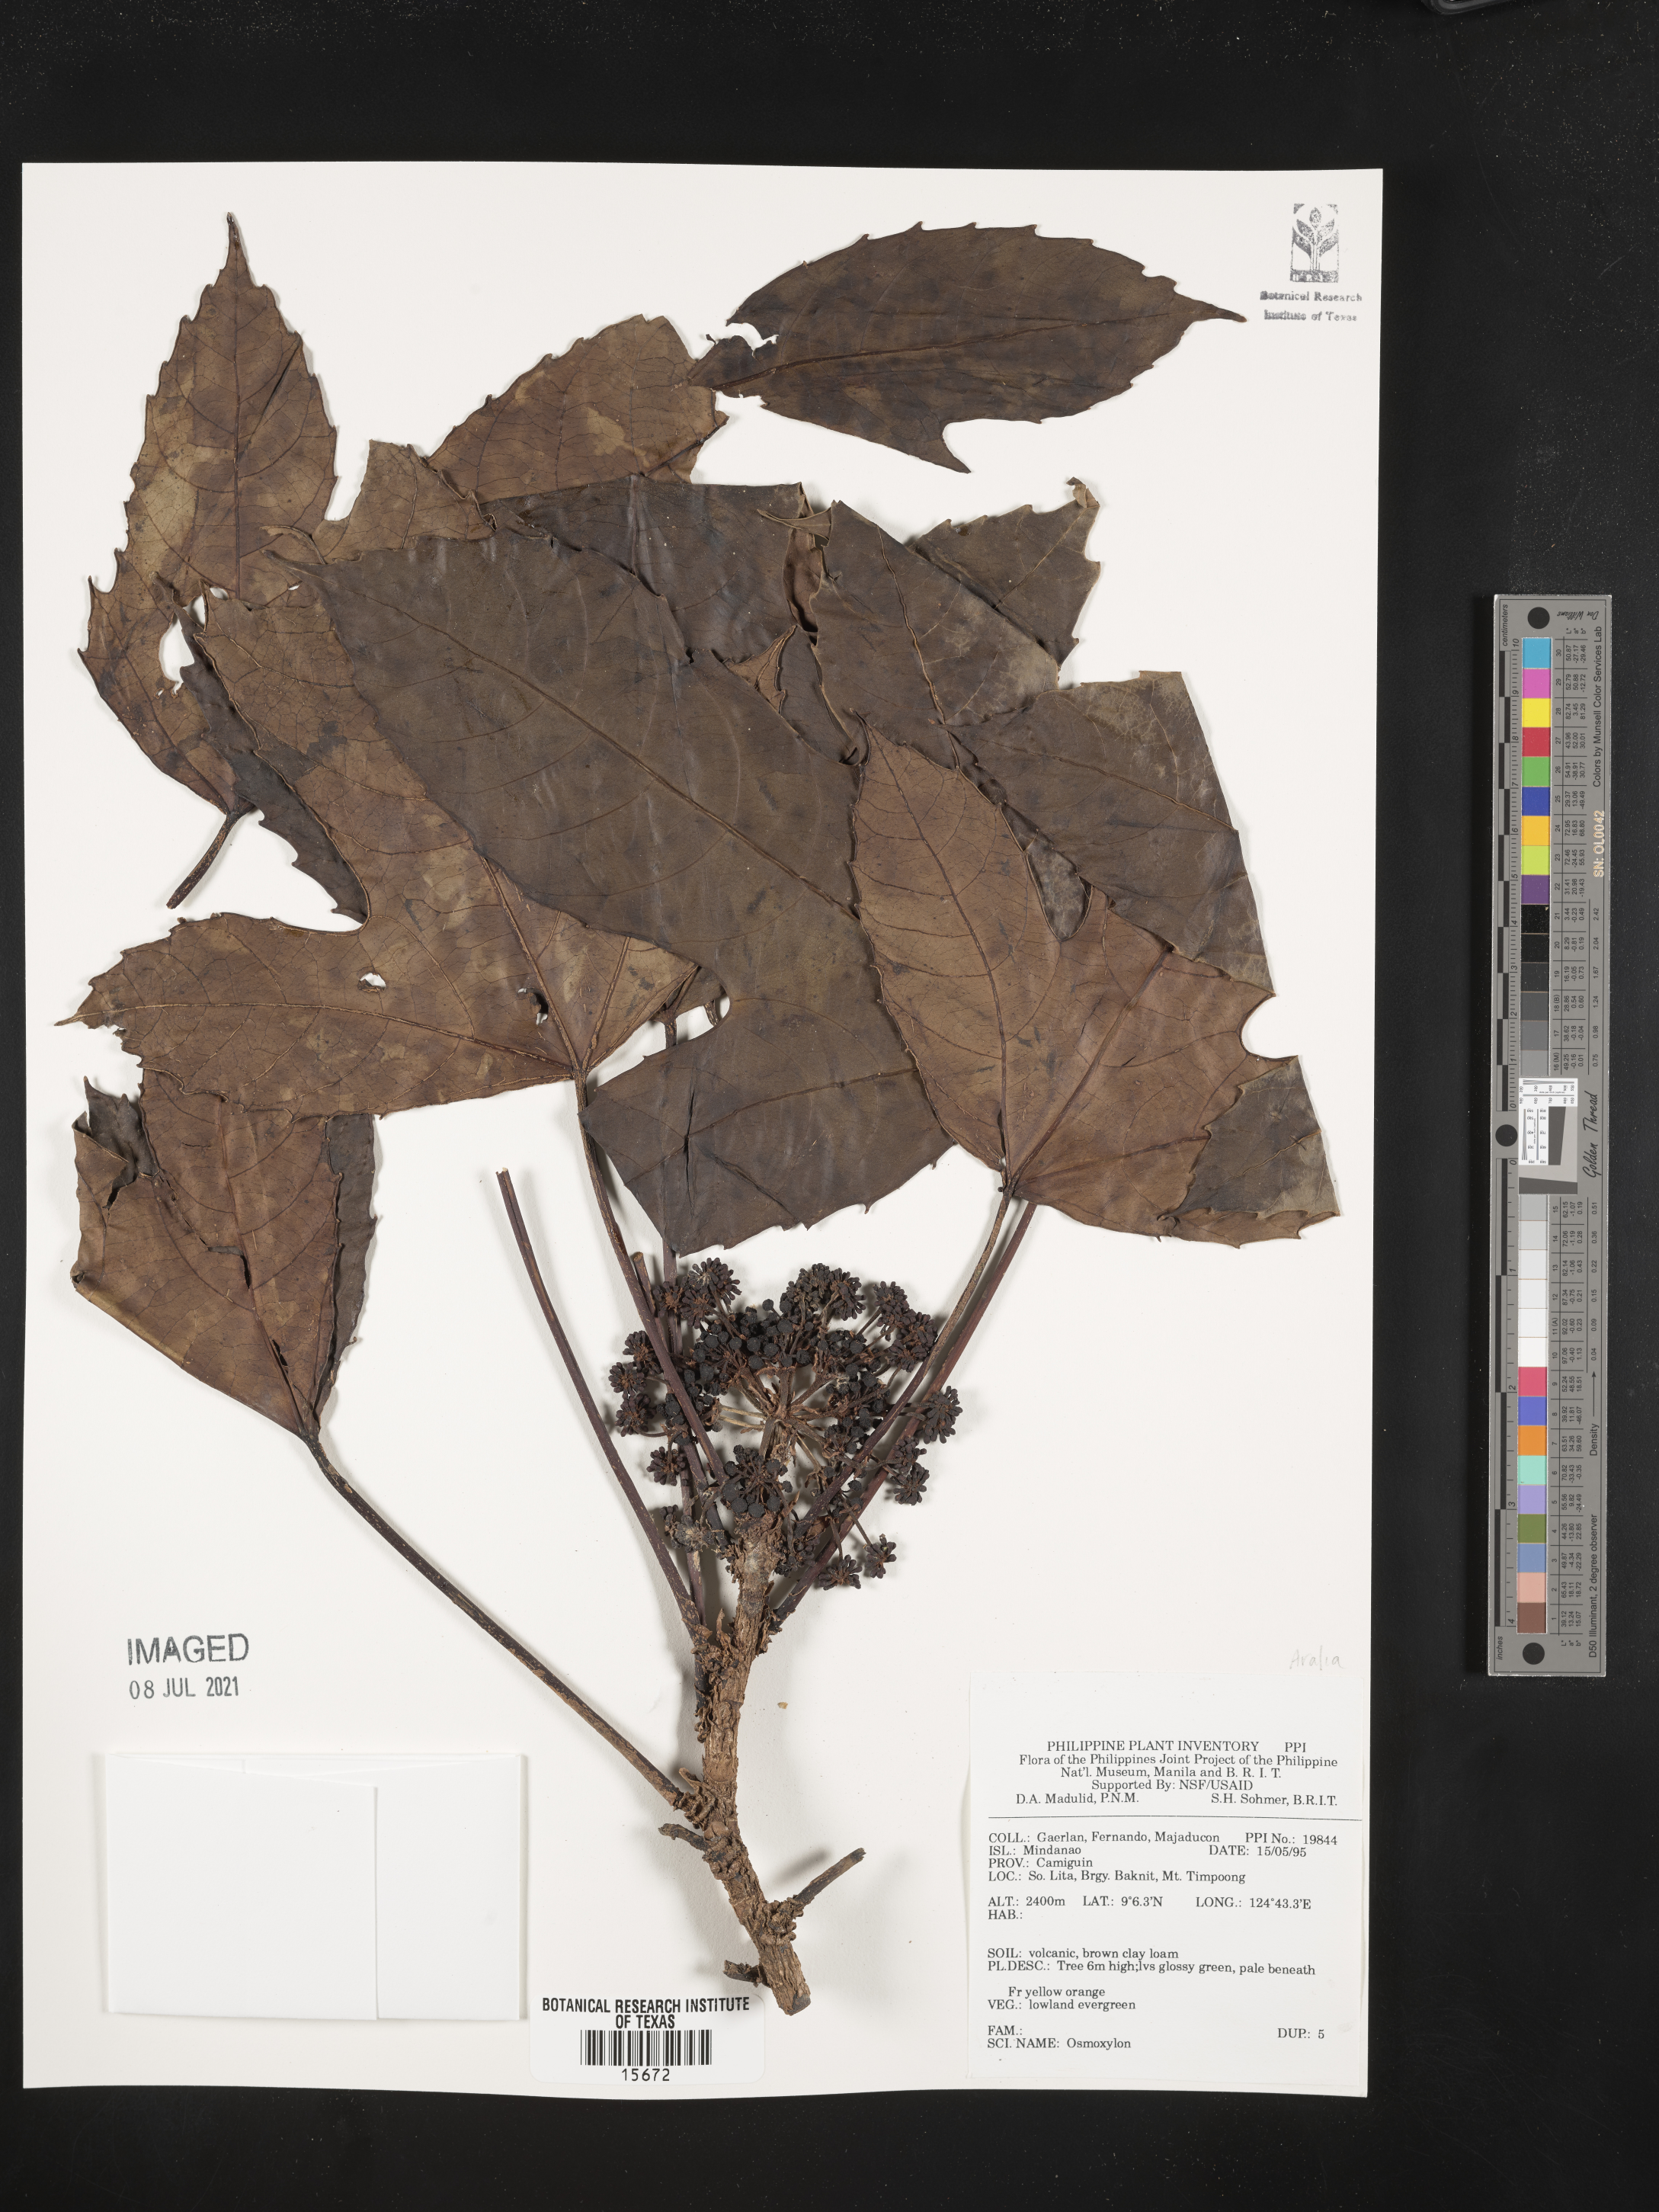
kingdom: Plantae
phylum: Tracheophyta
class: Magnoliopsida
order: Apiales
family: Araliaceae
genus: Osmoxylon
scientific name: Osmoxylon
